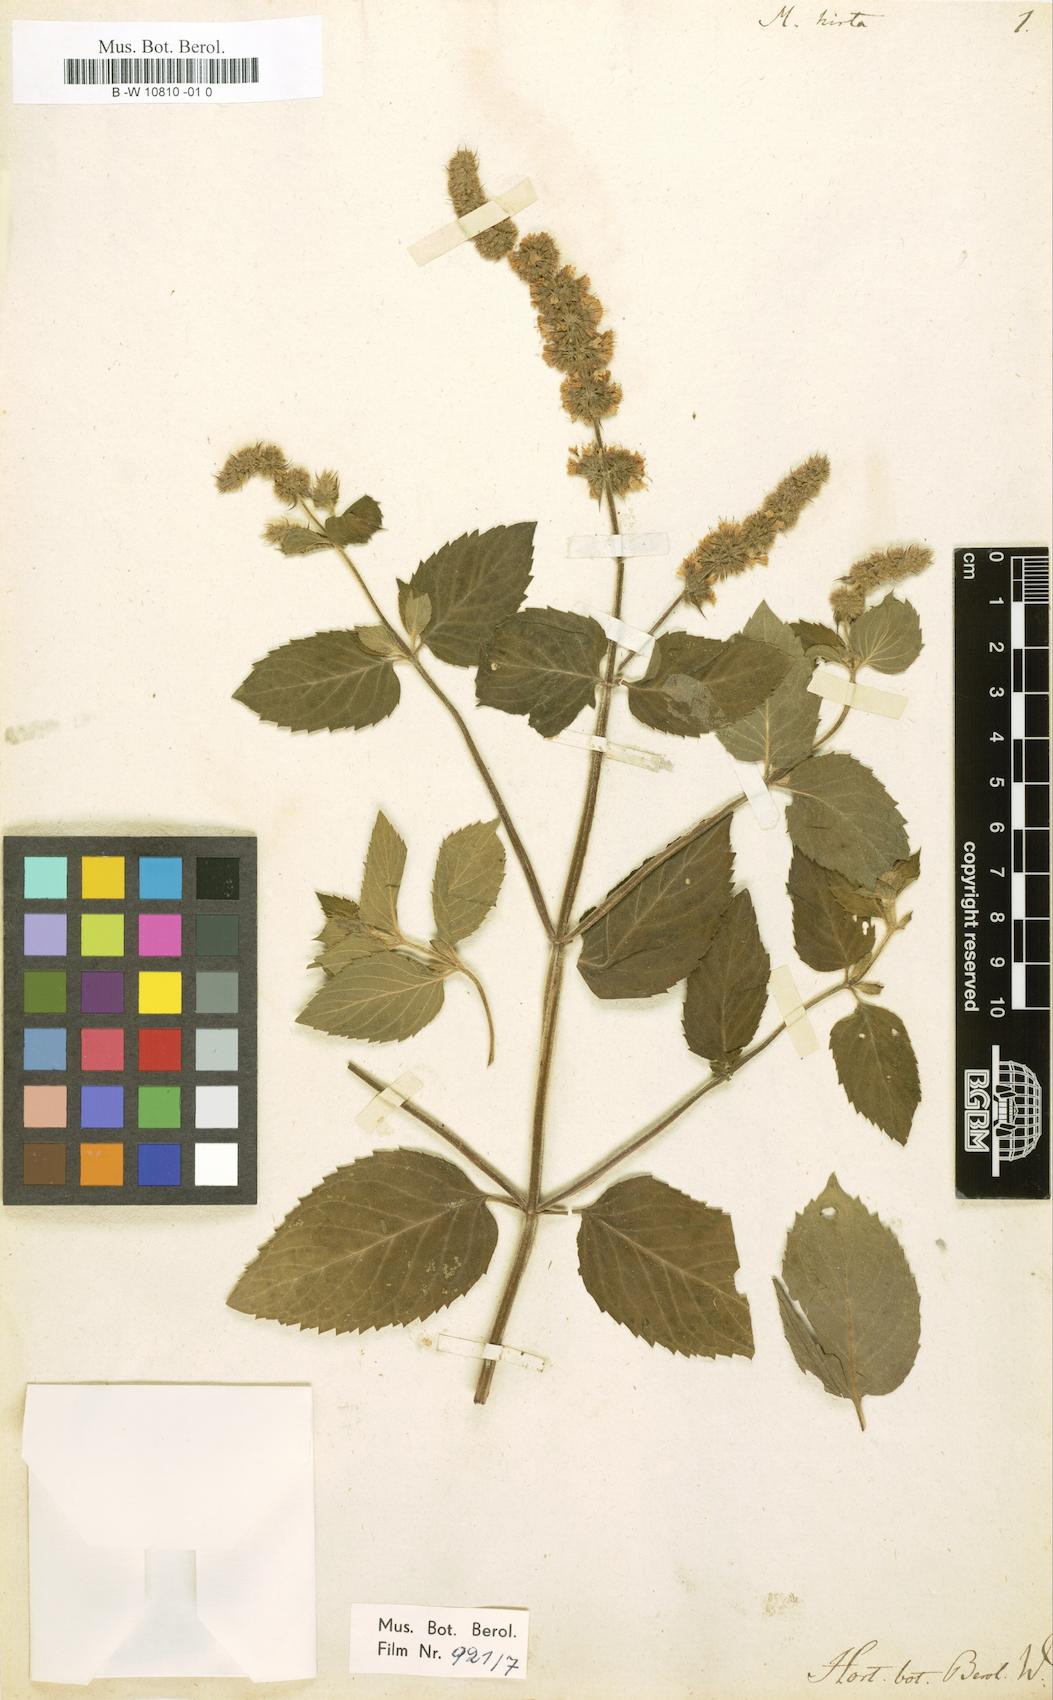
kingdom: Plantae
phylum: Tracheophyta
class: Magnoliopsida
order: Lamiales
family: Lamiaceae
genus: Mentha
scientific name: Mentha
